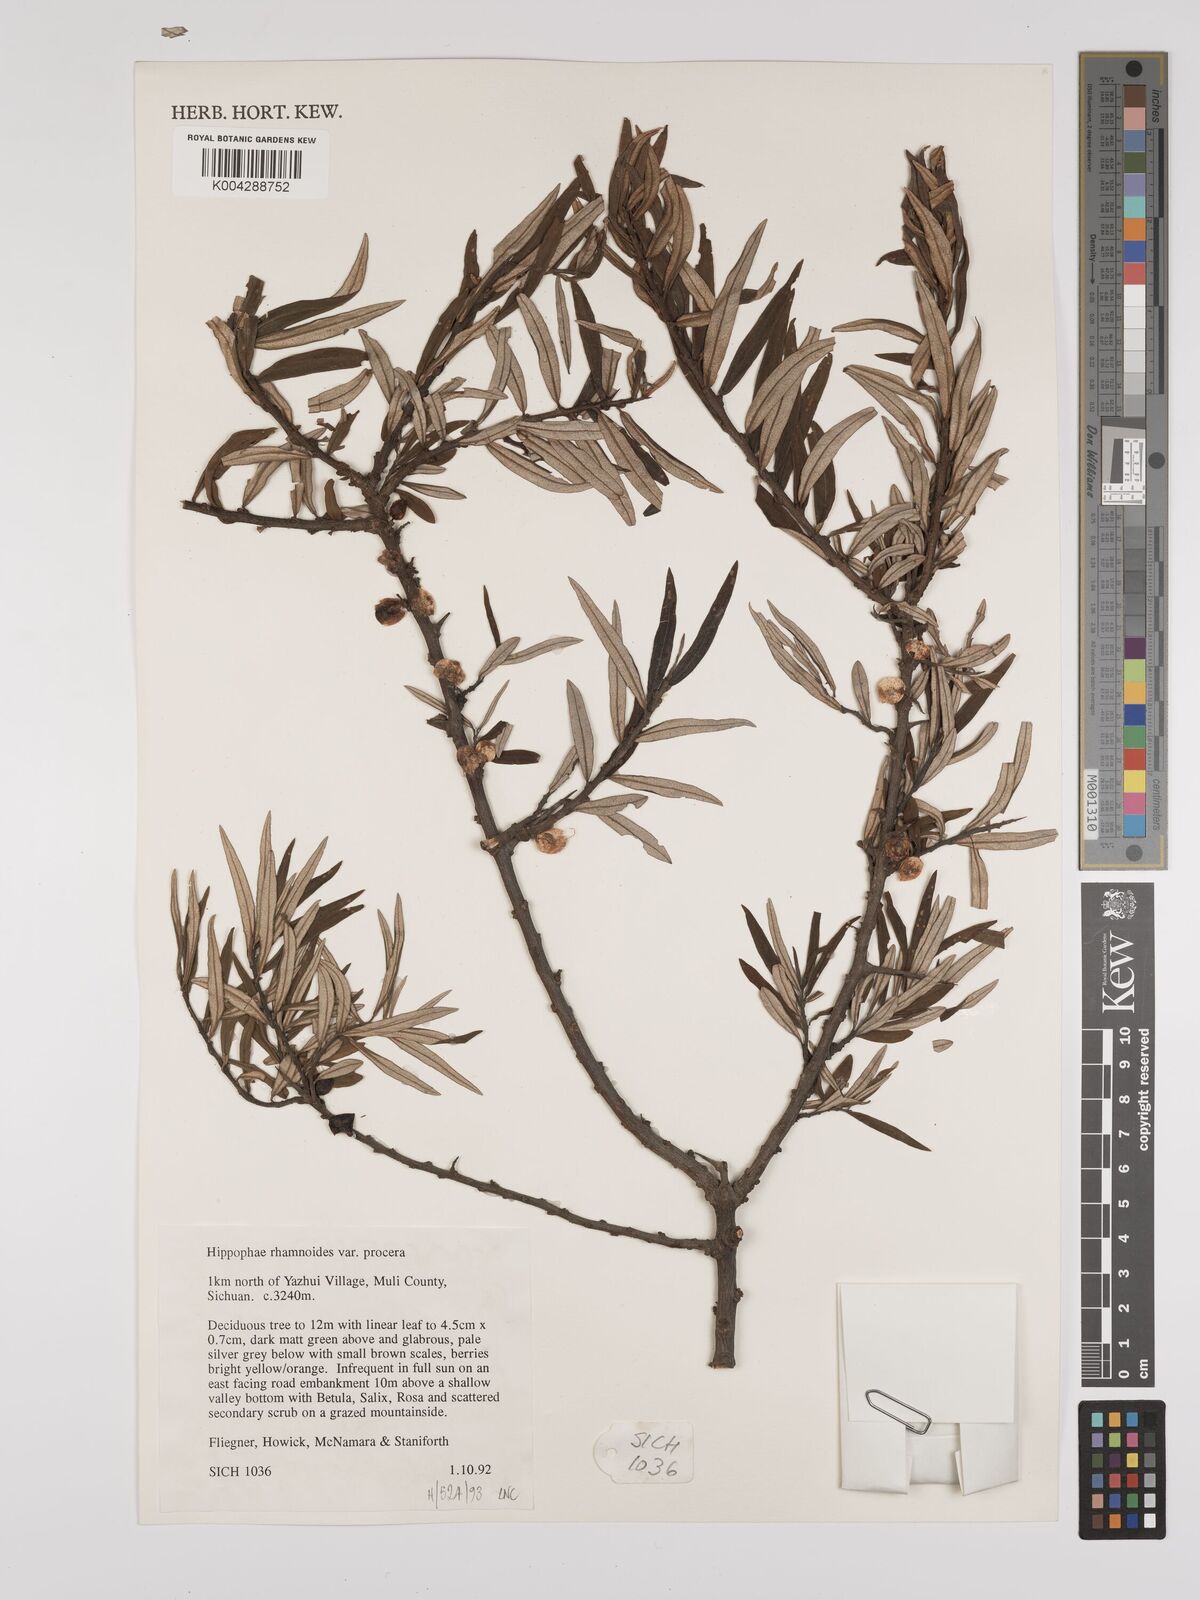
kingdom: Plantae
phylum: Tracheophyta
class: Magnoliopsida
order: Rosales
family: Elaeagnaceae
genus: Hippophae
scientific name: Hippophae rhamnoides
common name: Sea-buckthorn
